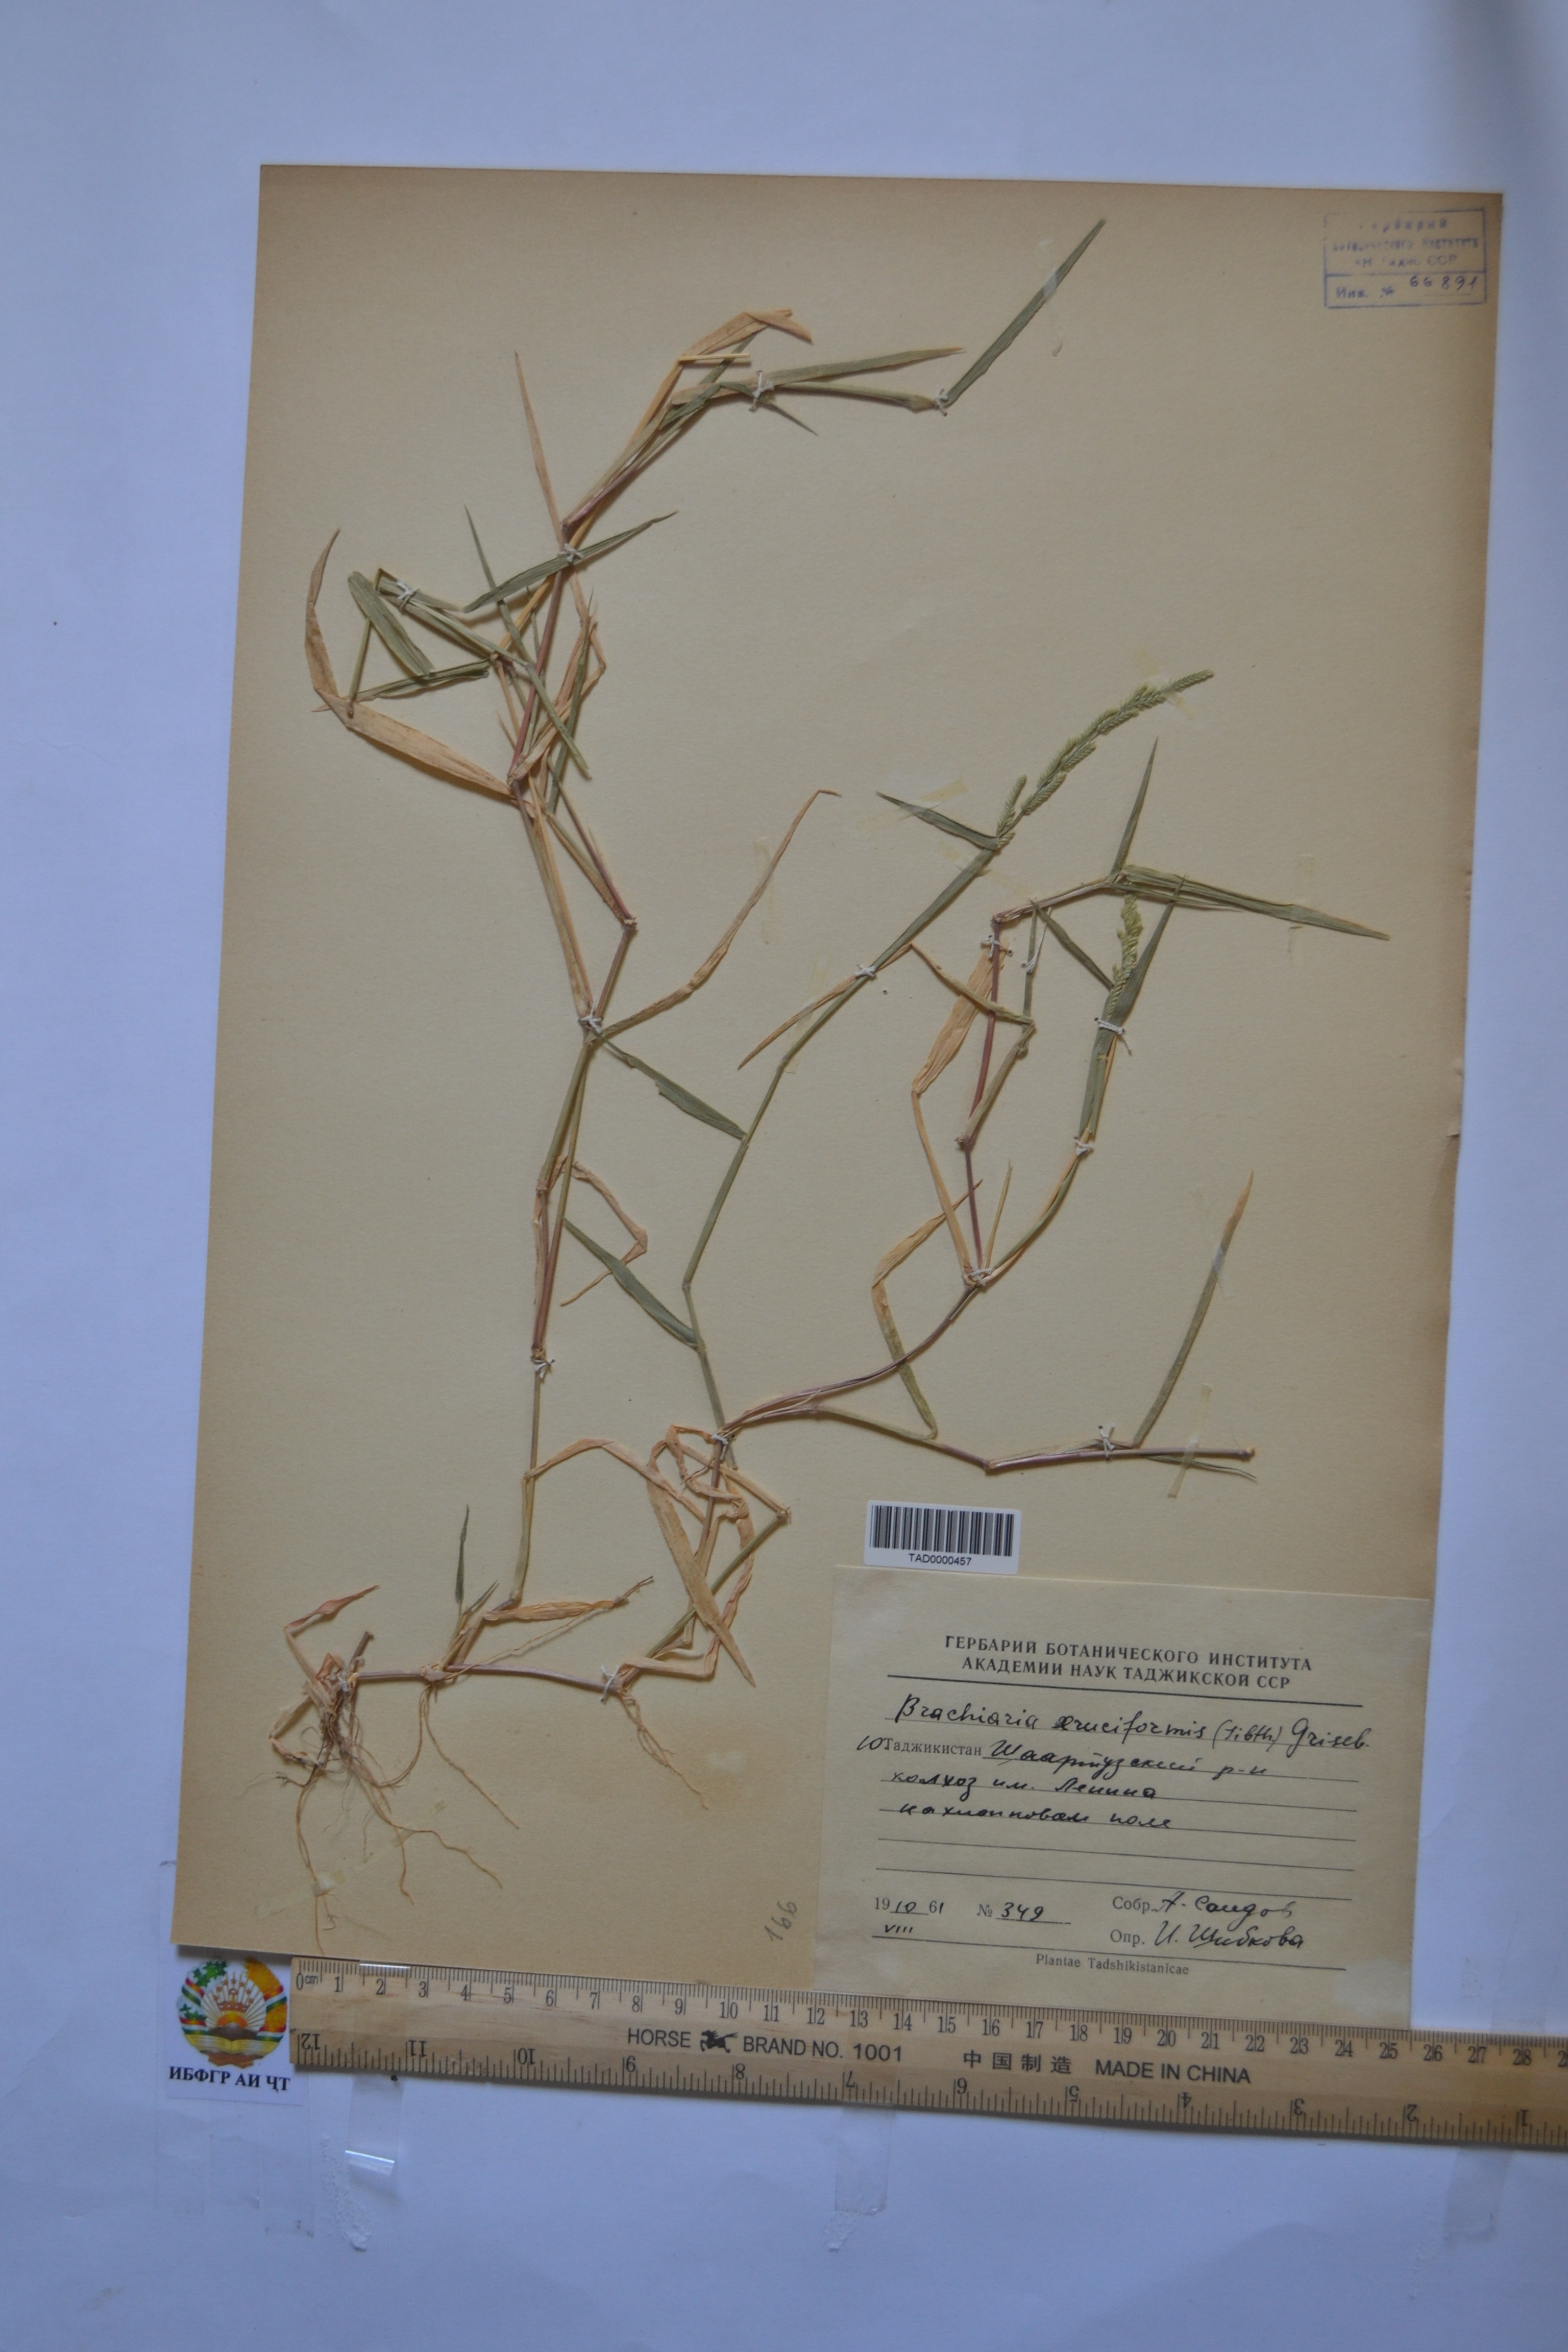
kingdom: Plantae
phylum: Tracheophyta
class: Liliopsida
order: Poales
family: Poaceae
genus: Moorochloa
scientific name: Moorochloa eruciformis
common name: Sweet signalgrass
